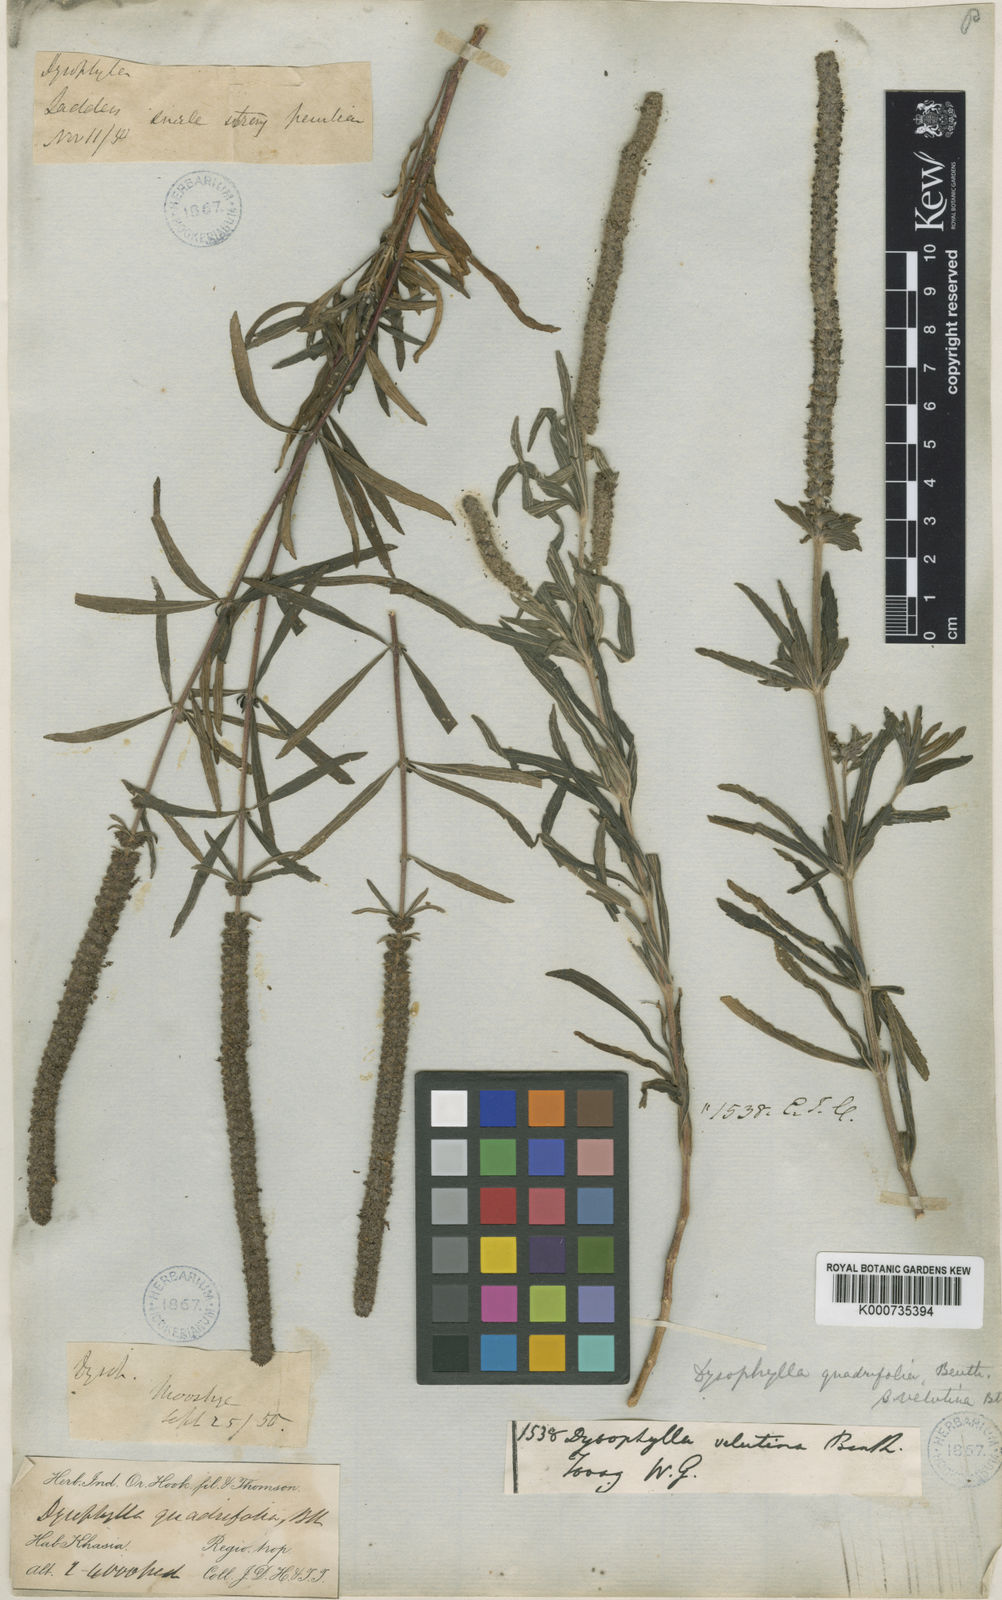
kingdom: Plantae
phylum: Tracheophyta
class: Magnoliopsida
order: Lamiales
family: Lamiaceae
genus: Pogostemon
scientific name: Pogostemon quadrifolius
